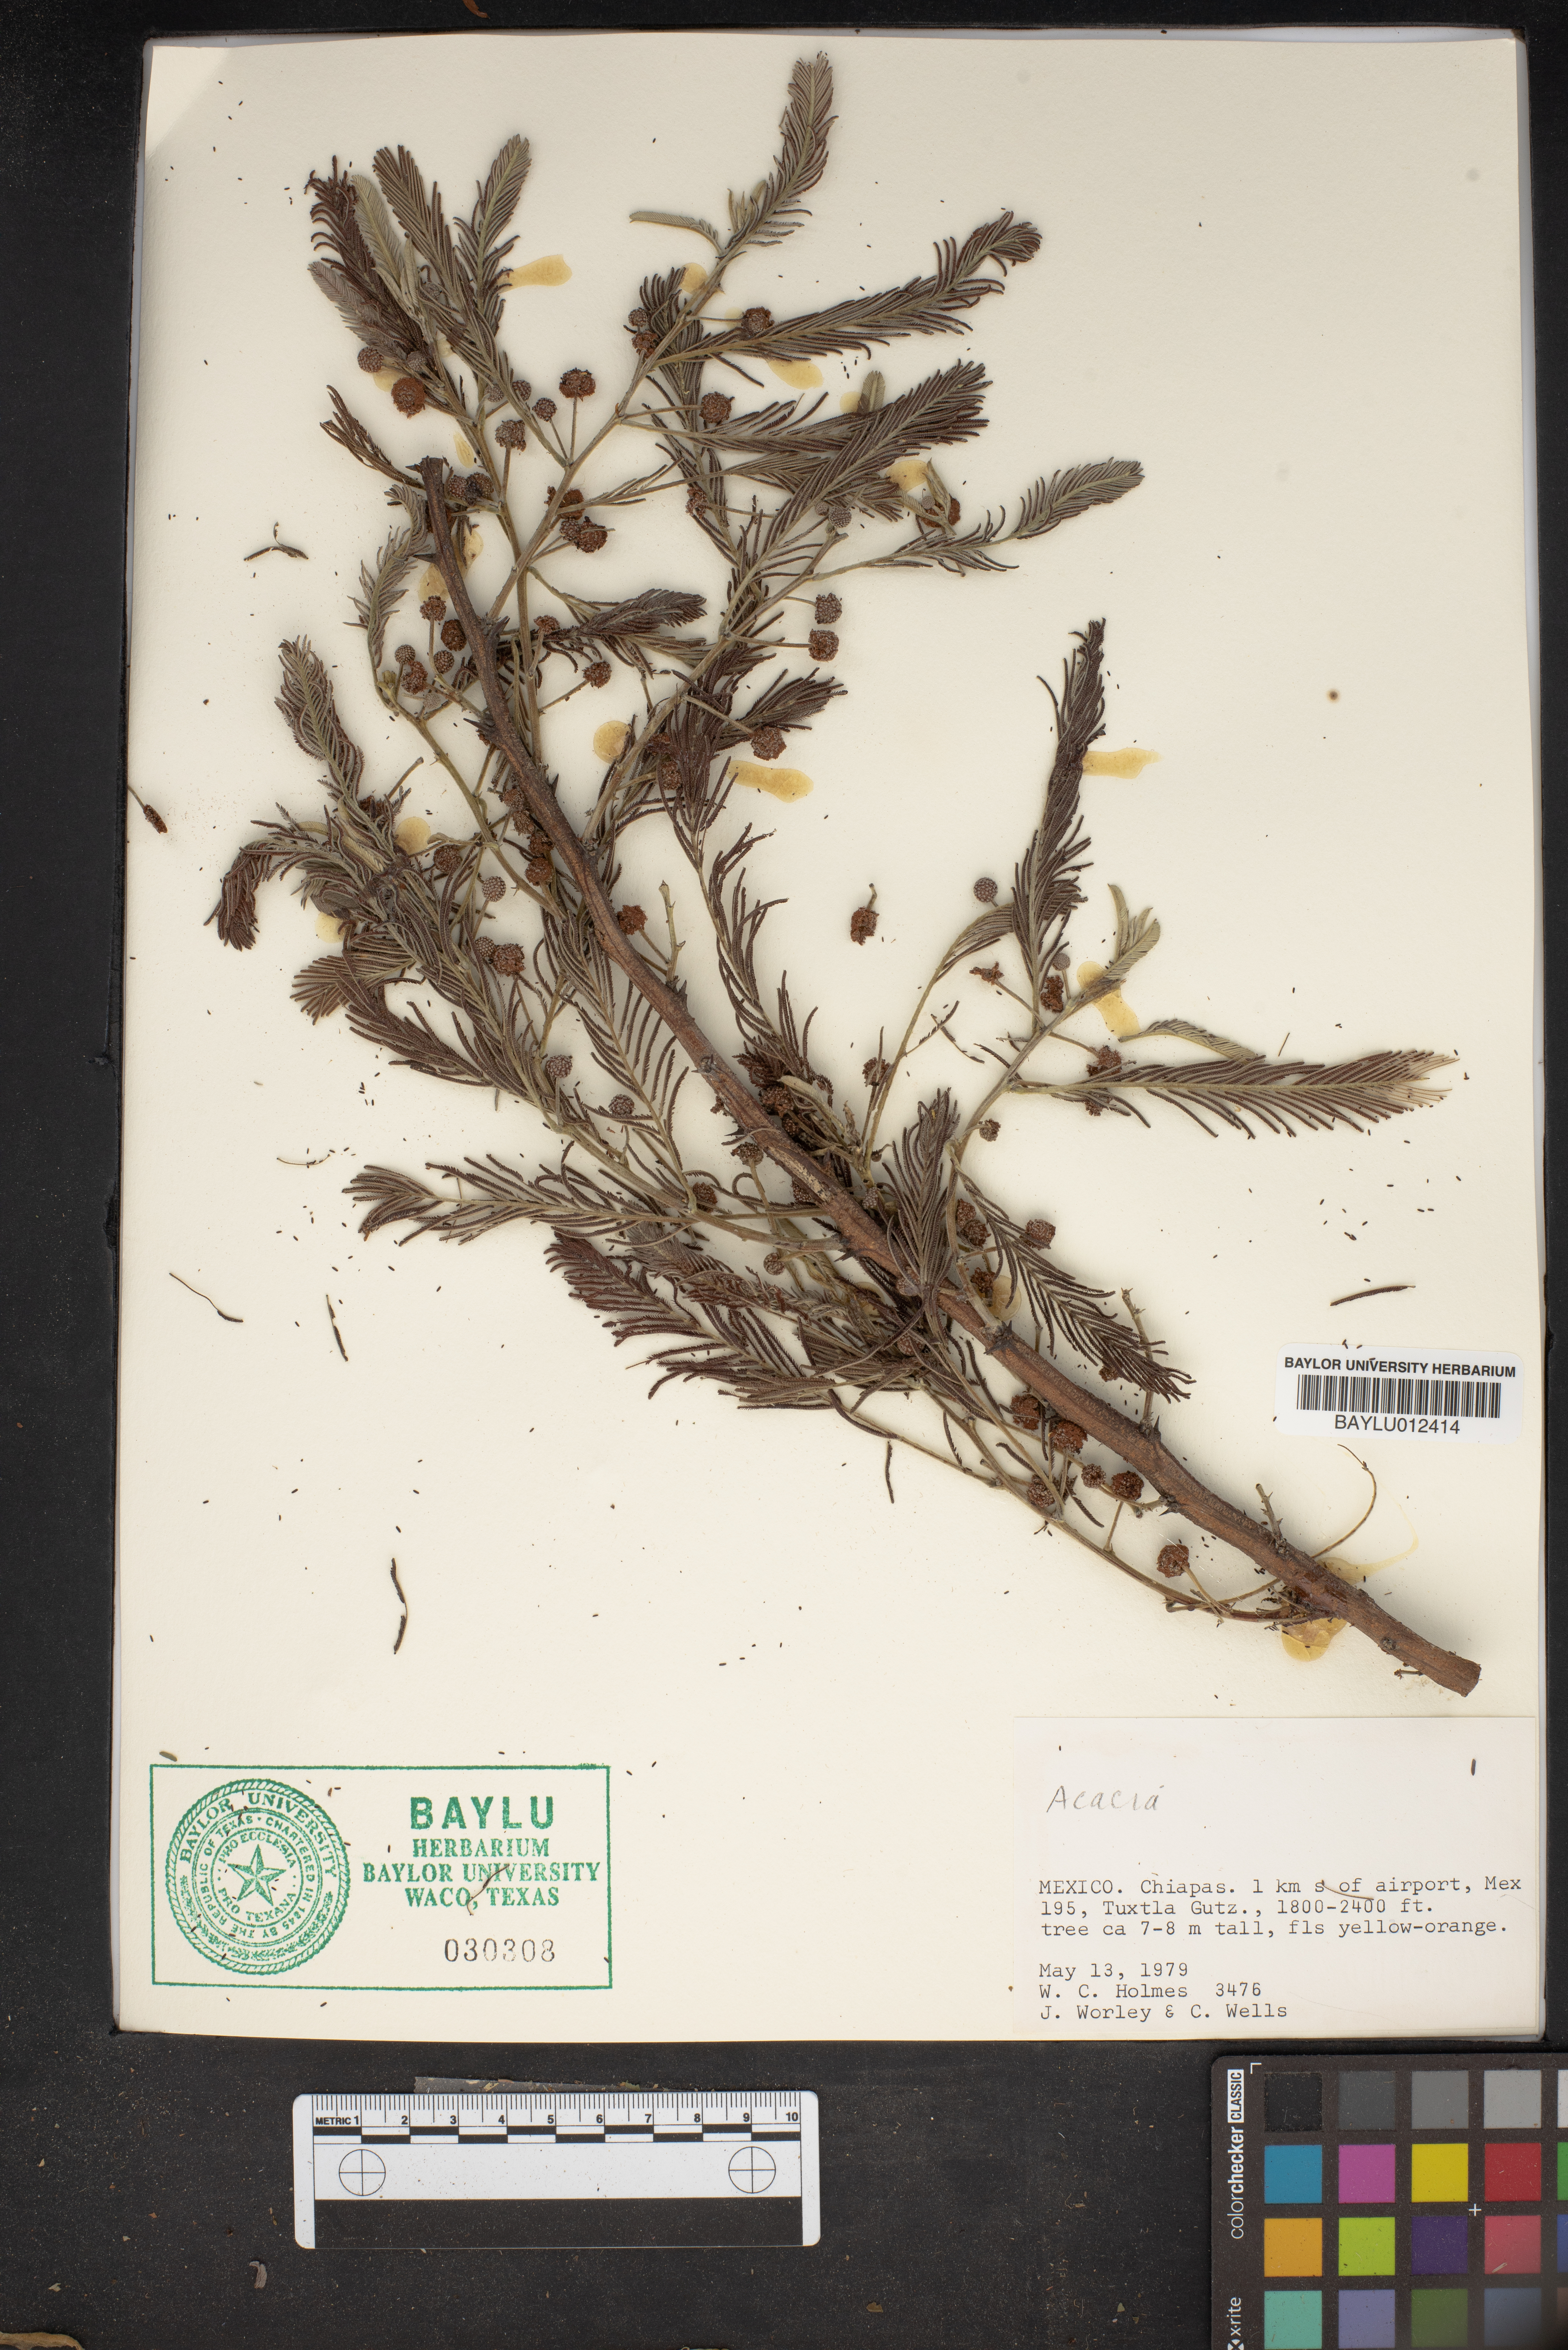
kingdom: Plantae
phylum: Tracheophyta
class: Magnoliopsida
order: Fabales
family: Fabaceae
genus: Acacia
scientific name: Acacia
